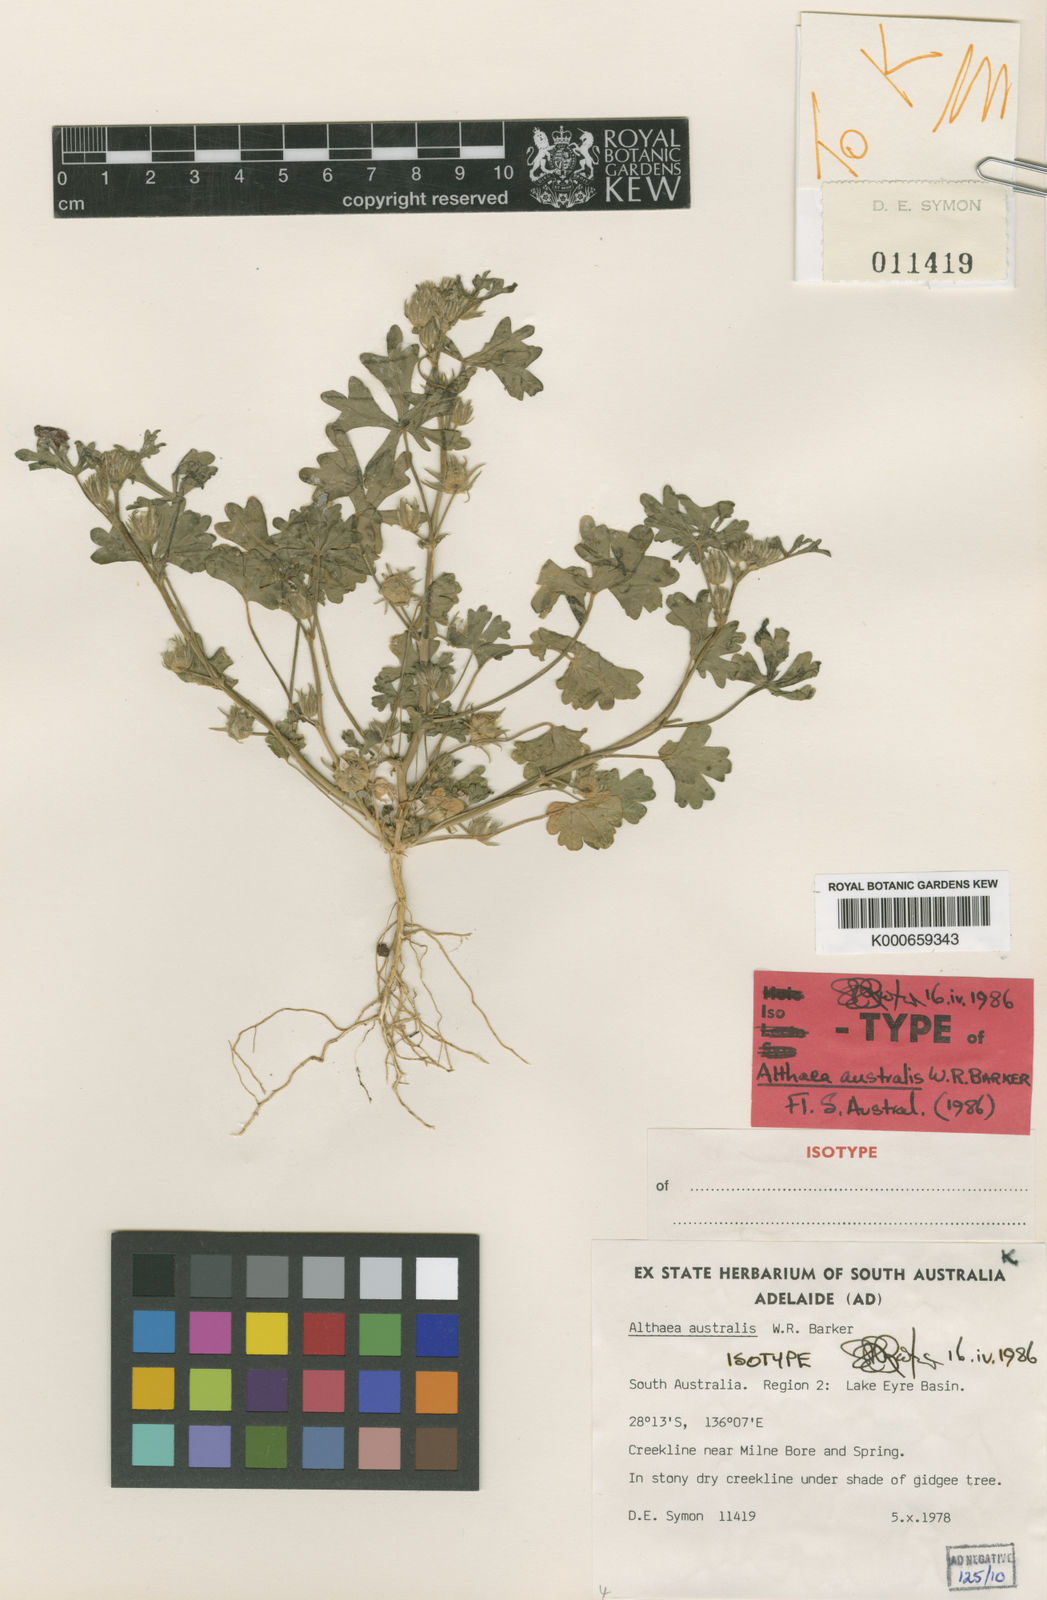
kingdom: Plantae
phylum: Tracheophyta
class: Magnoliopsida
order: Malvales
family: Malvaceae
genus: Althaea
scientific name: Althaea australis
